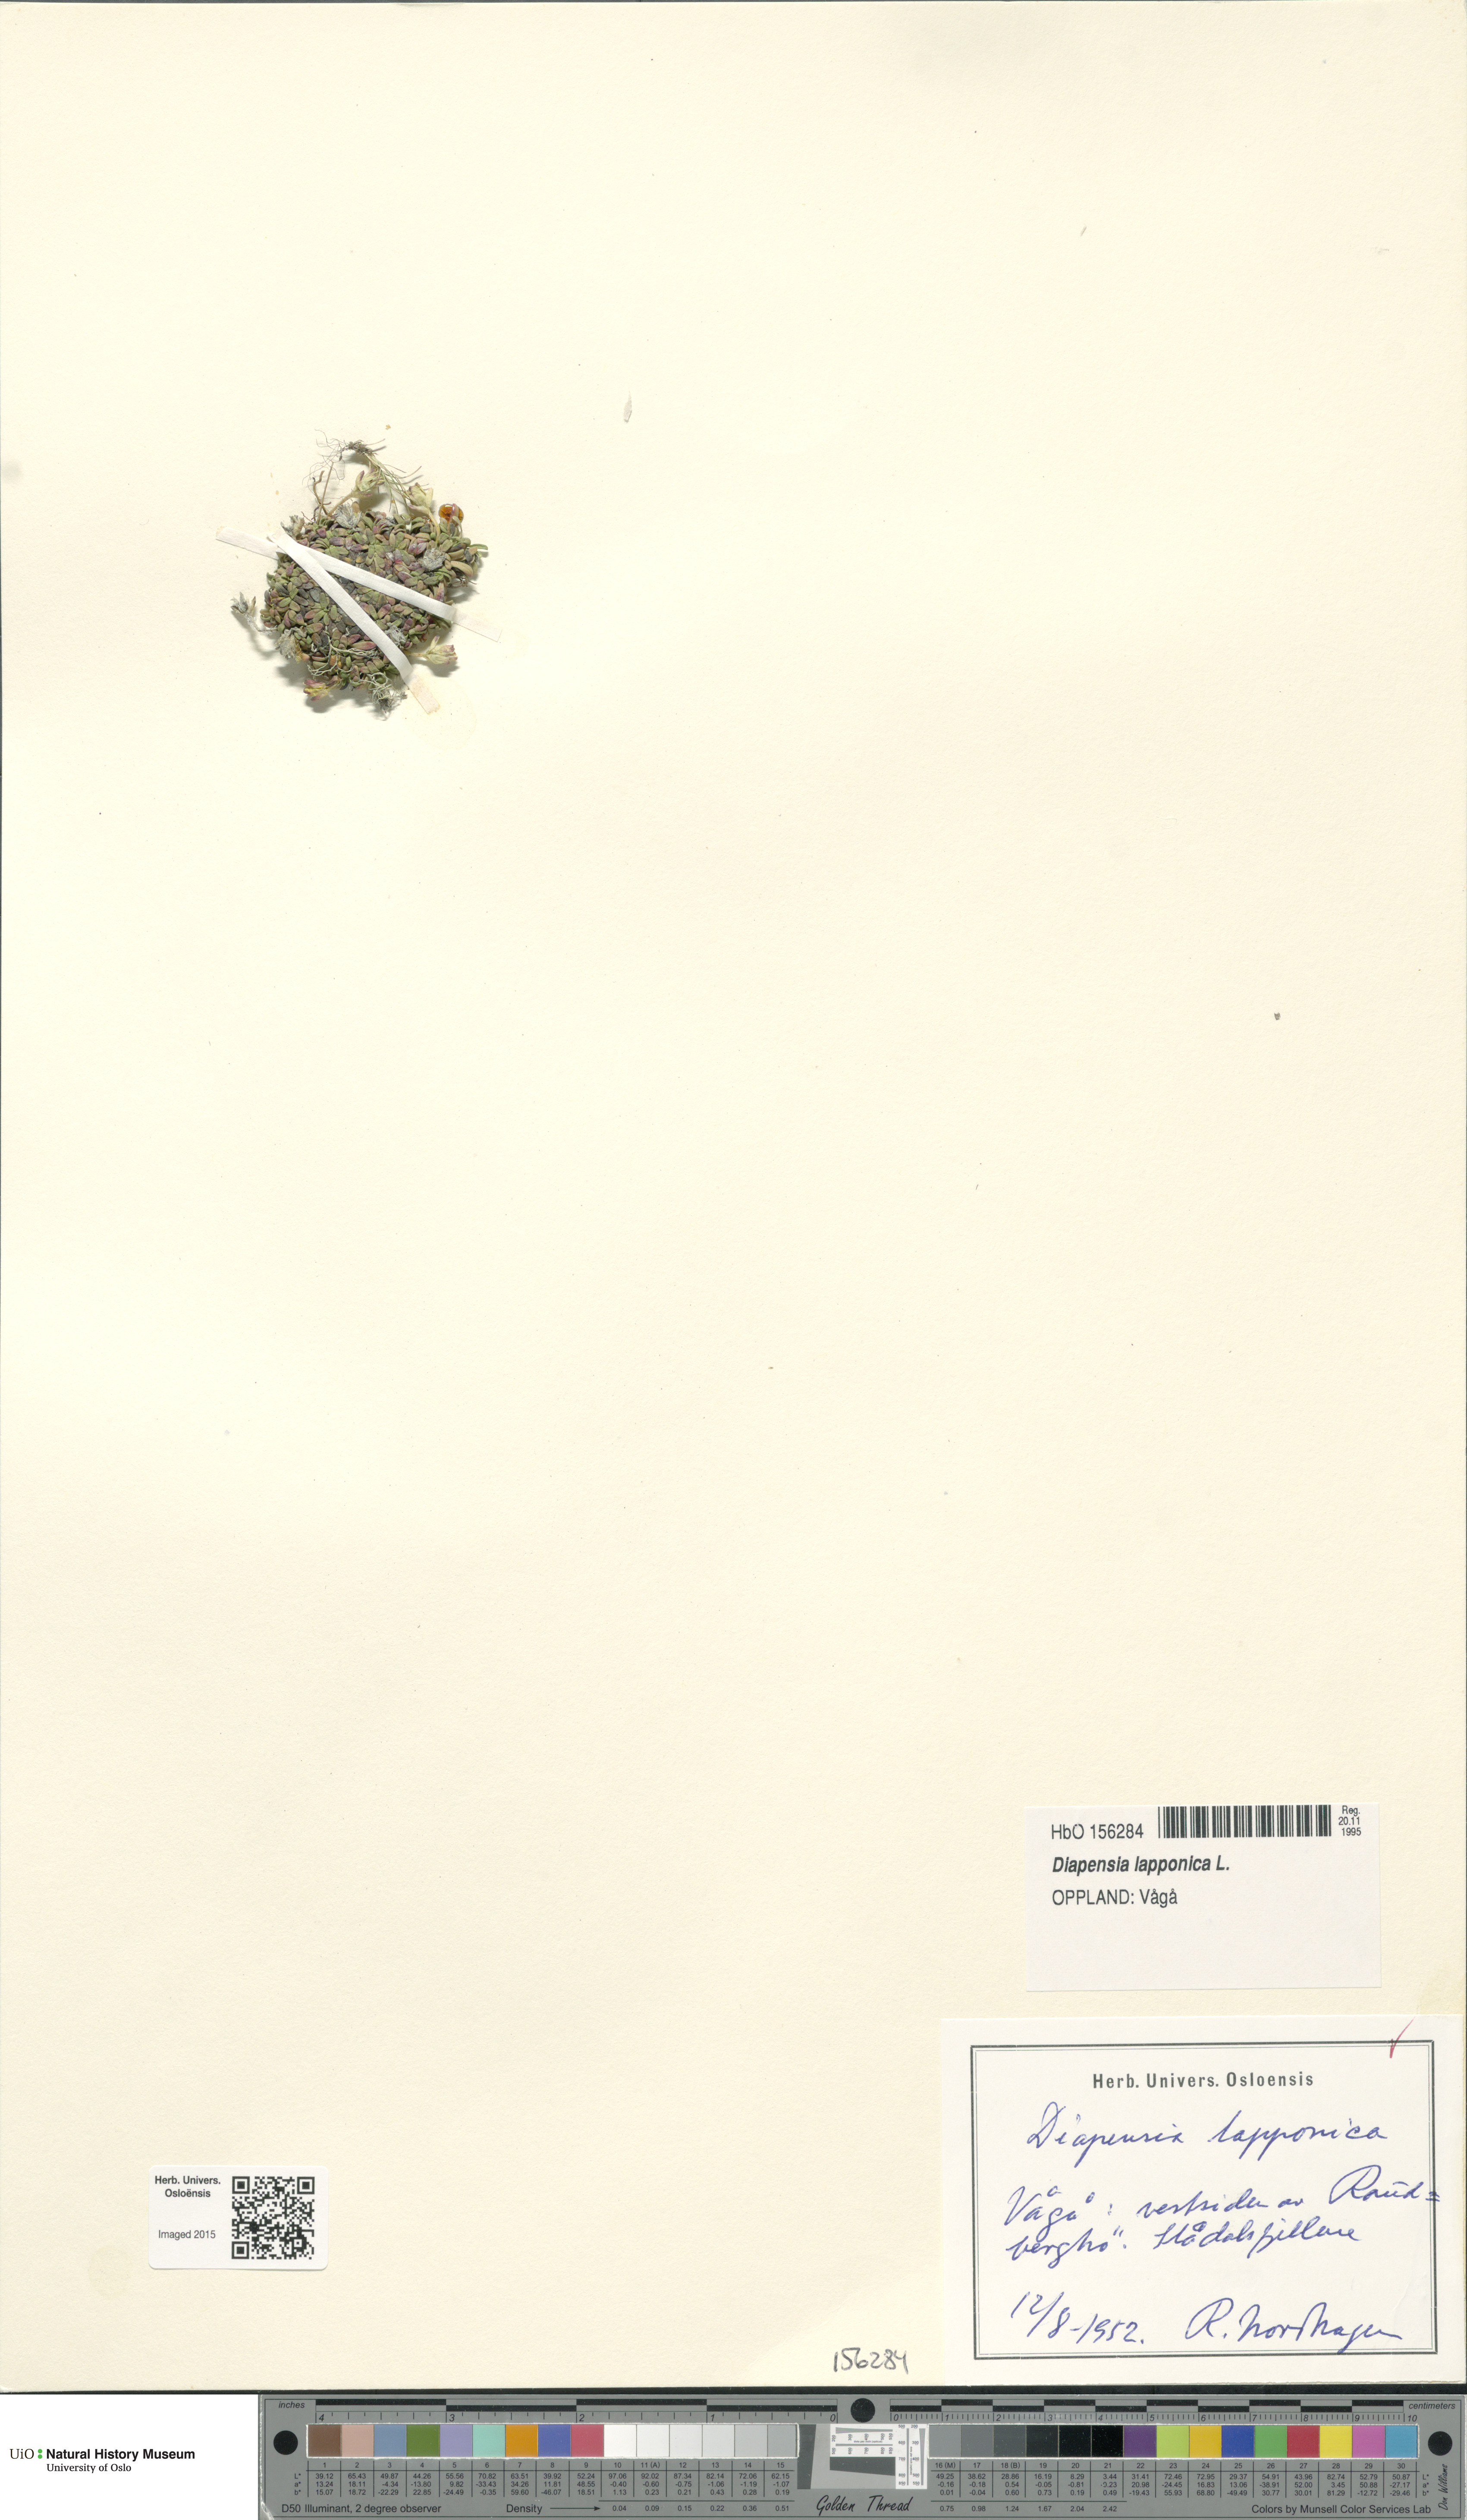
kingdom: Plantae
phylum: Tracheophyta
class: Magnoliopsida
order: Ericales
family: Diapensiaceae
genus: Diapensia
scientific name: Diapensia lapponica
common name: Diapensia
